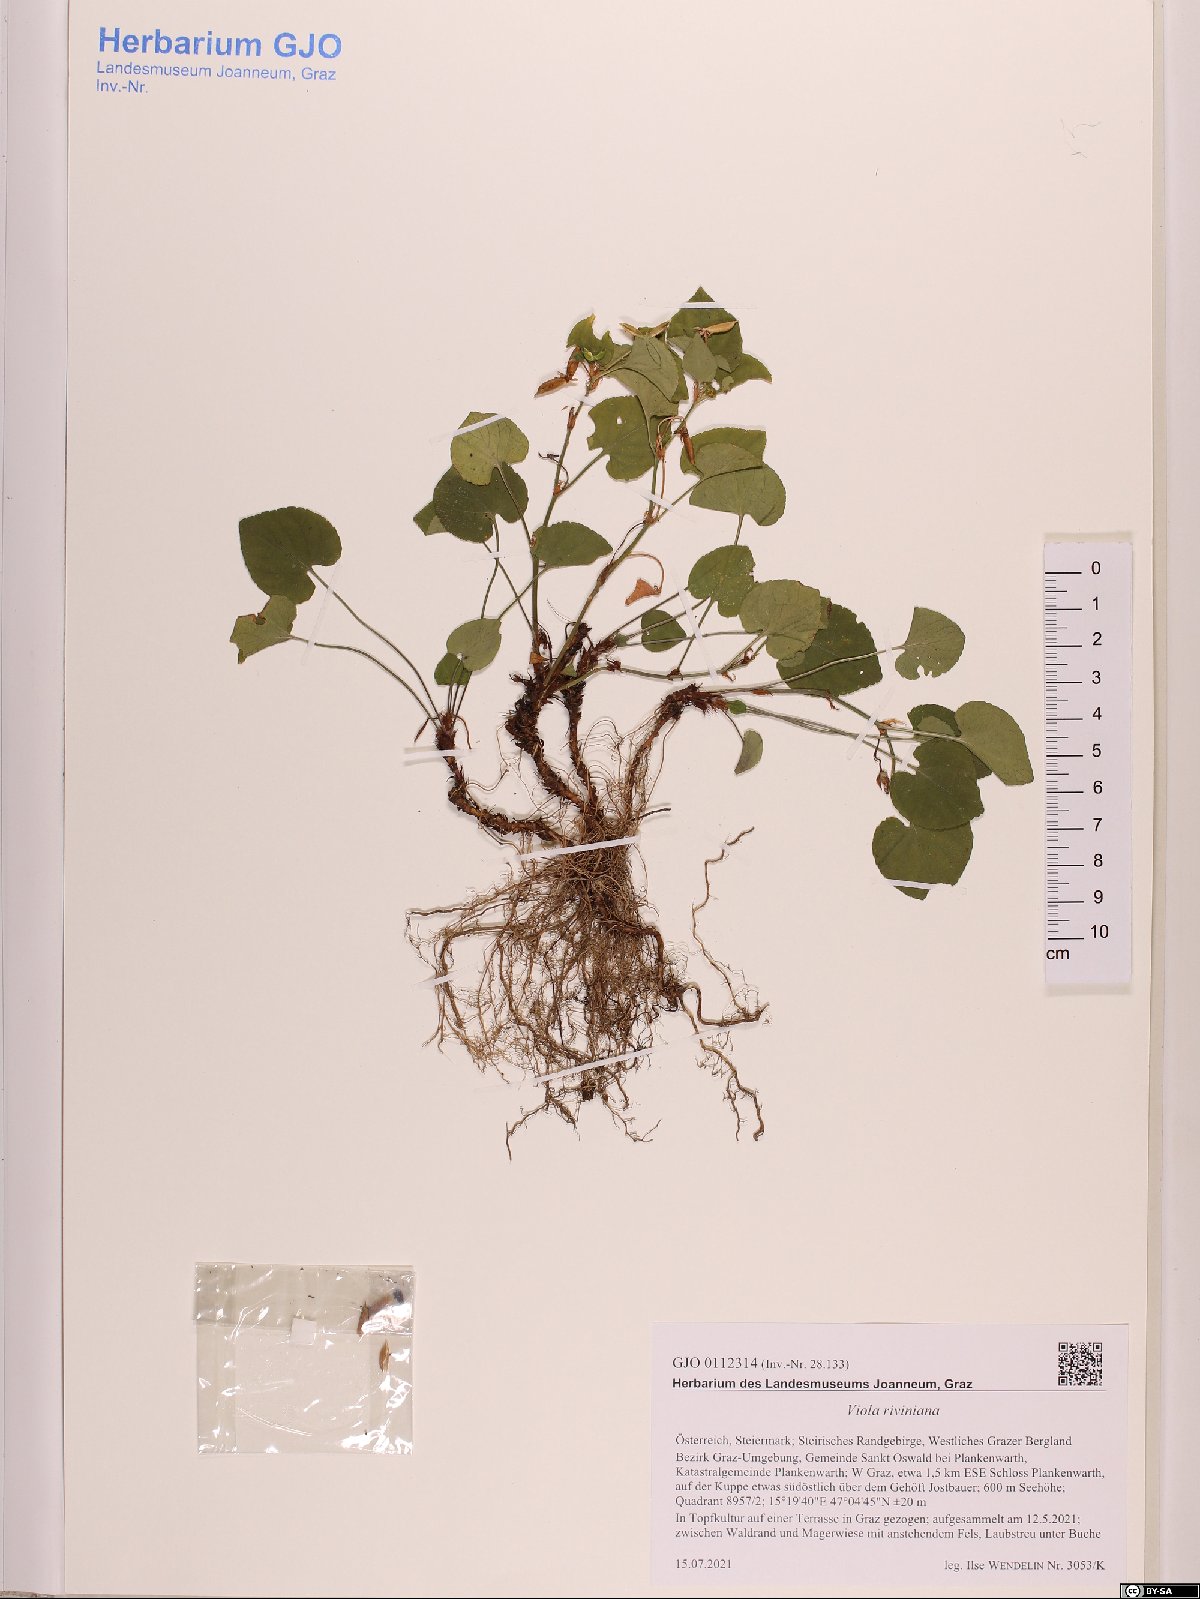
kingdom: Plantae
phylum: Tracheophyta
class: Magnoliopsida
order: Malpighiales
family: Violaceae
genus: Viola
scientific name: Viola riviniana
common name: Common dog-violet
